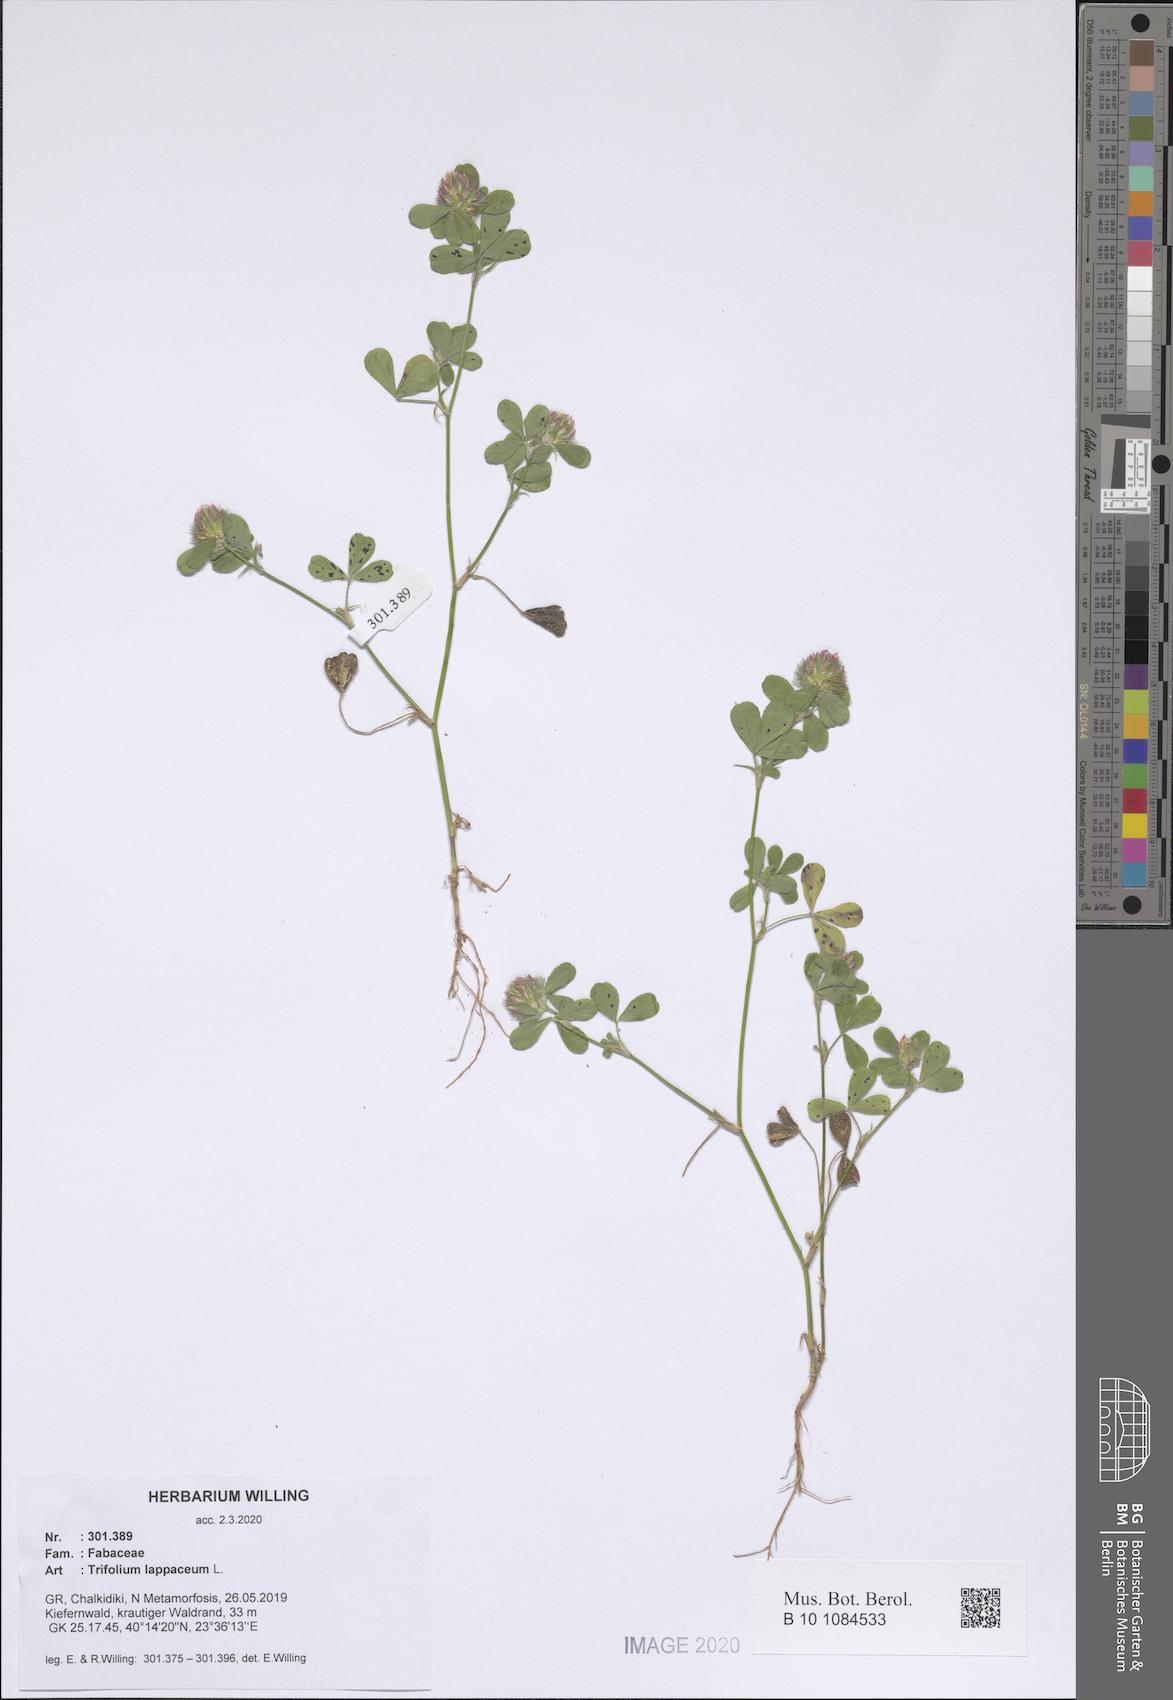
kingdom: Plantae
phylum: Tracheophyta
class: Magnoliopsida
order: Fabales
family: Fabaceae
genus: Trifolium
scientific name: Trifolium lappaceum
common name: Bur clover
